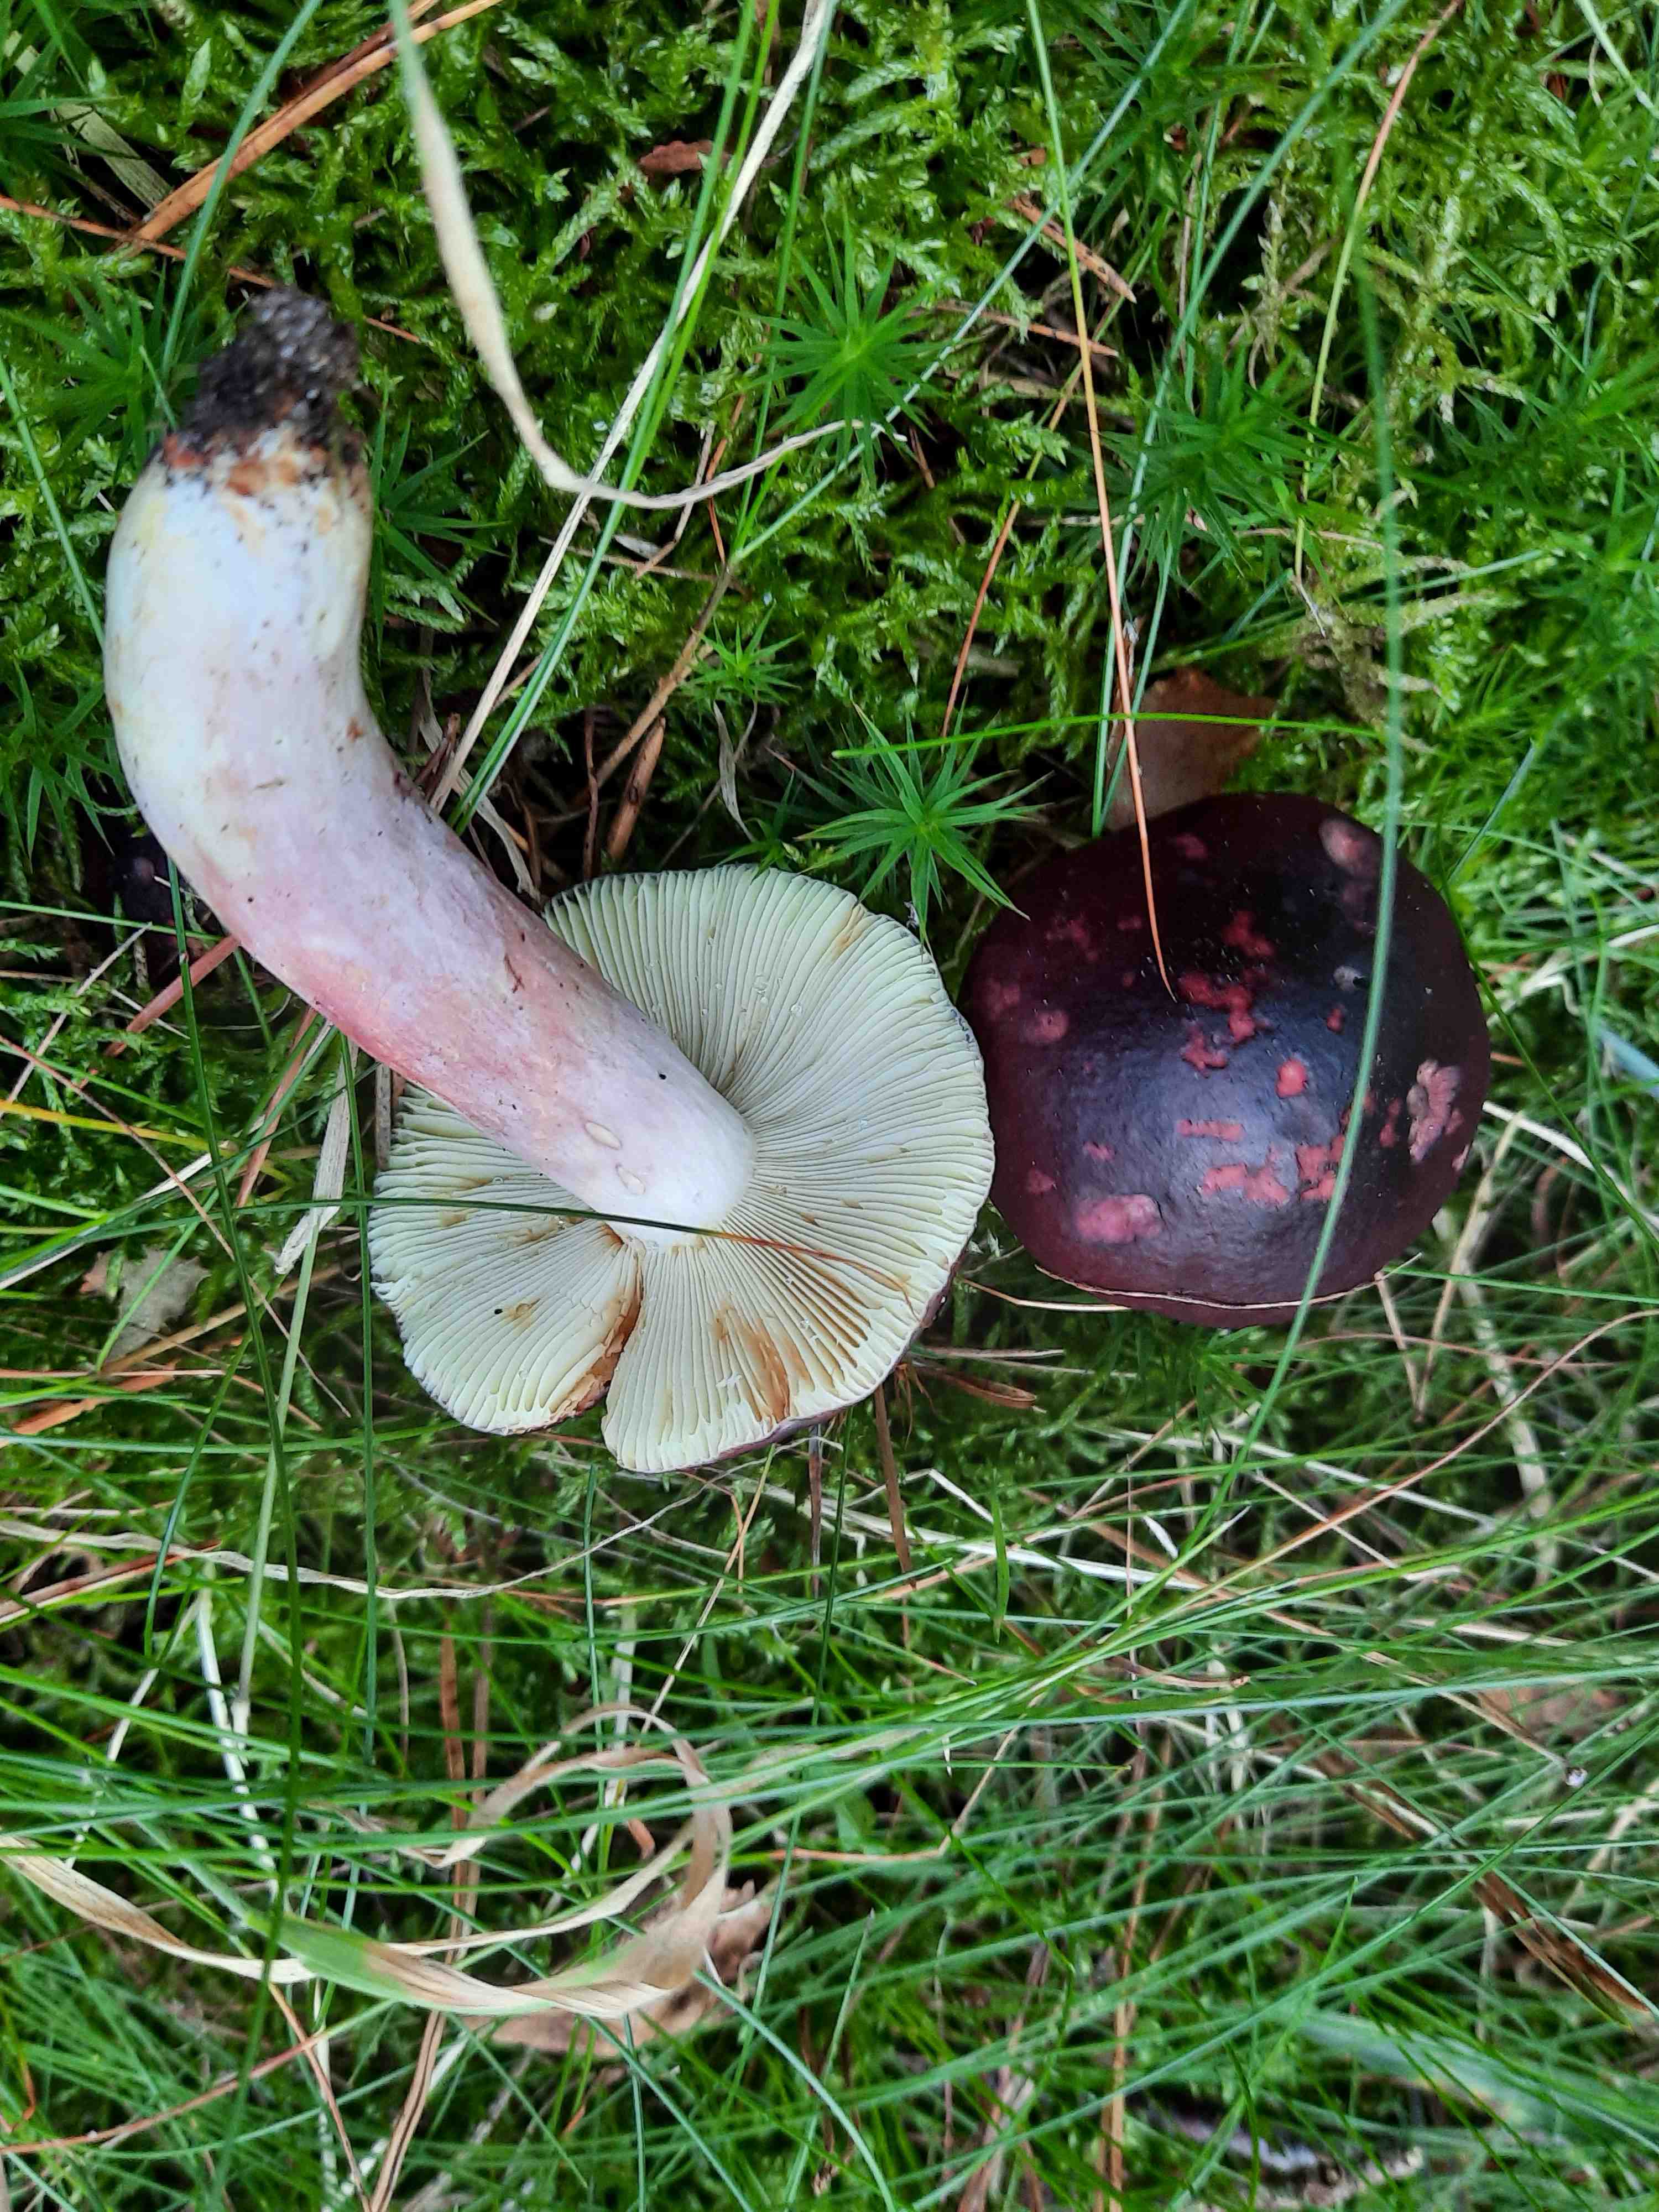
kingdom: Fungi
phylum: Basidiomycota
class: Agaricomycetes
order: Russulales
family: Russulaceae
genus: Russula
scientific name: Russula sardonia
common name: citronbladet skørhat
